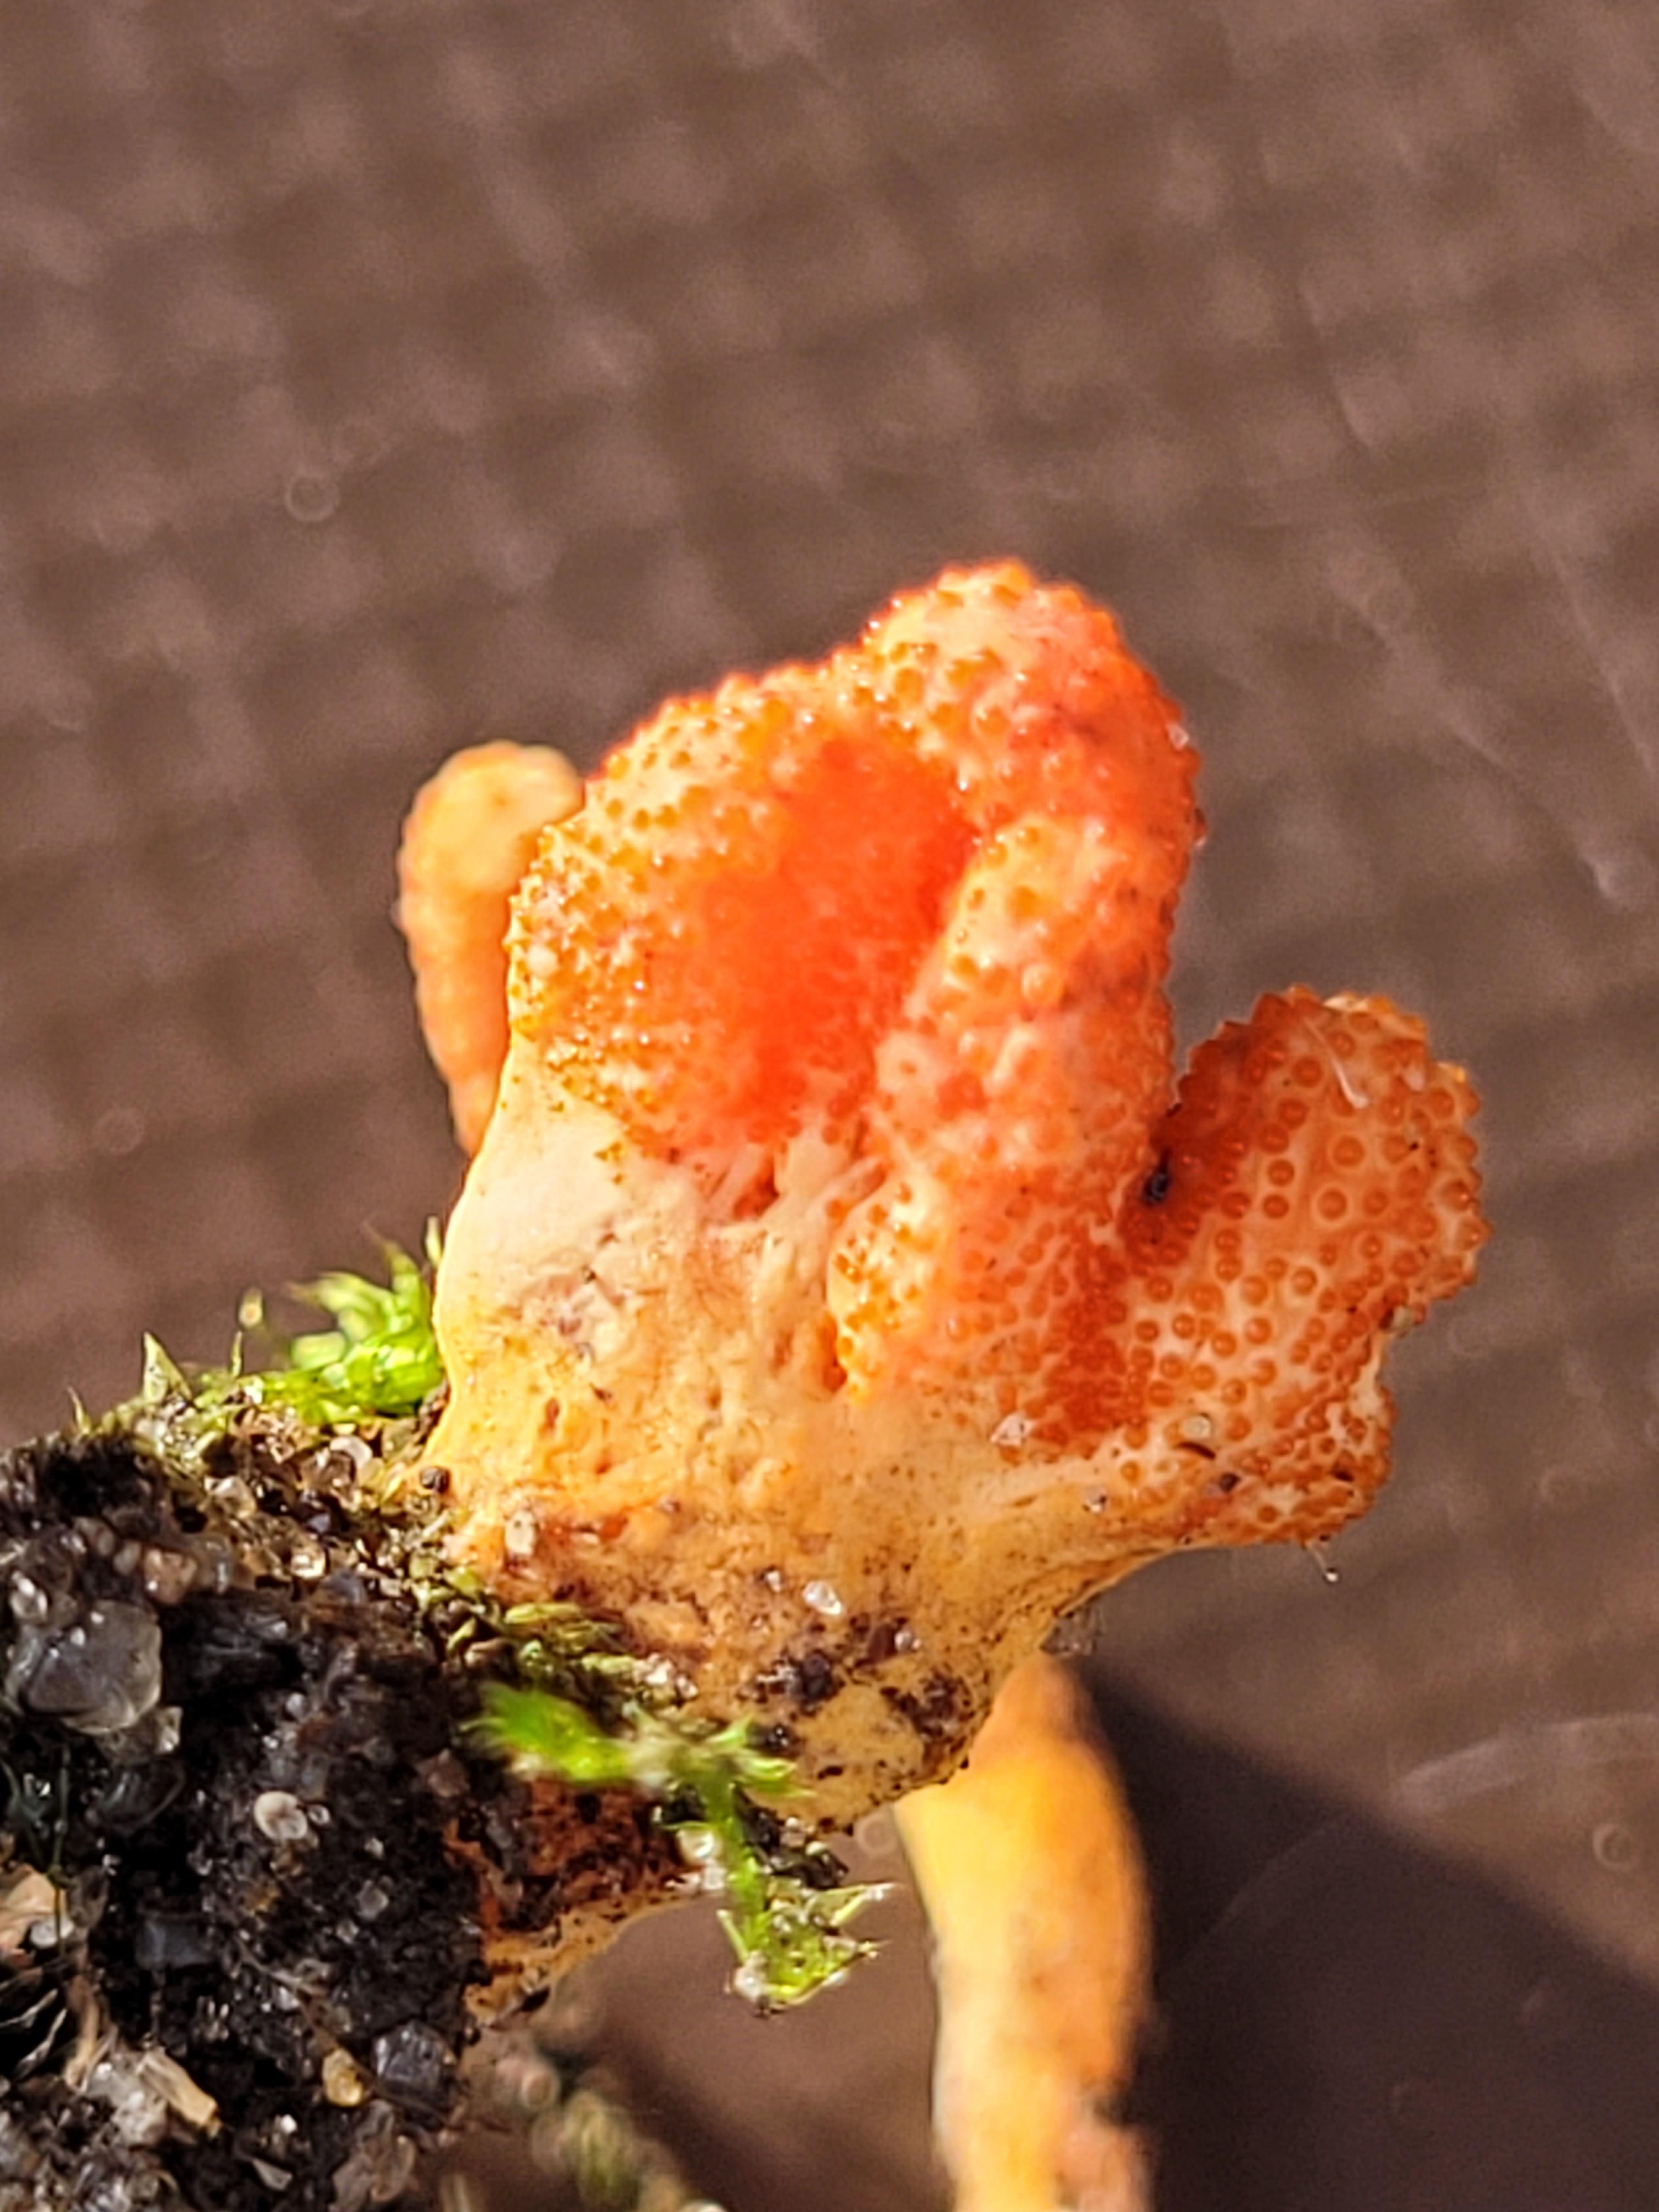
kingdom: Fungi
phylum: Ascomycota
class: Sordariomycetes
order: Hypocreales
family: Cordycipitaceae
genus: Cordyceps
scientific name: Cordyceps militaris
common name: puppe-snyltekølle
